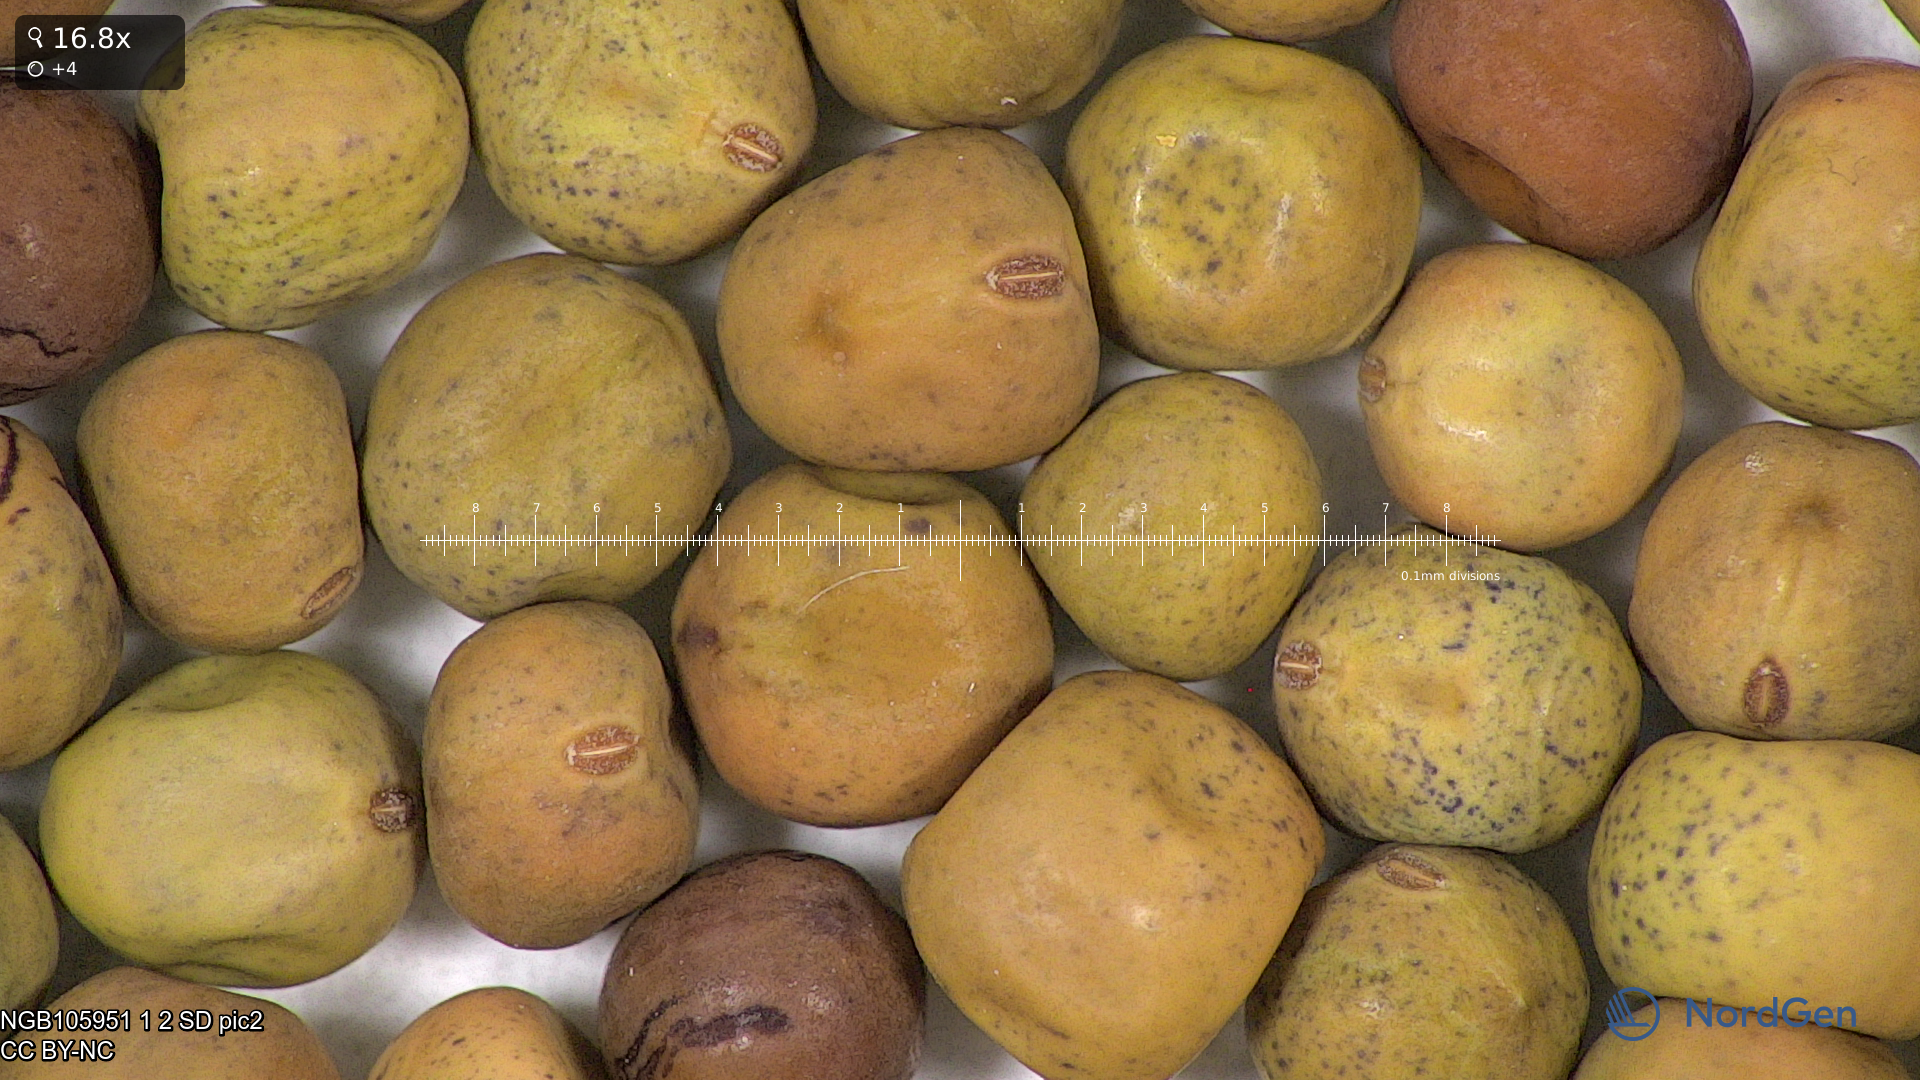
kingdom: Plantae
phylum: Tracheophyta
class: Magnoliopsida
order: Fabales
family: Fabaceae
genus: Lathyrus
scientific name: Lathyrus oleraceus
